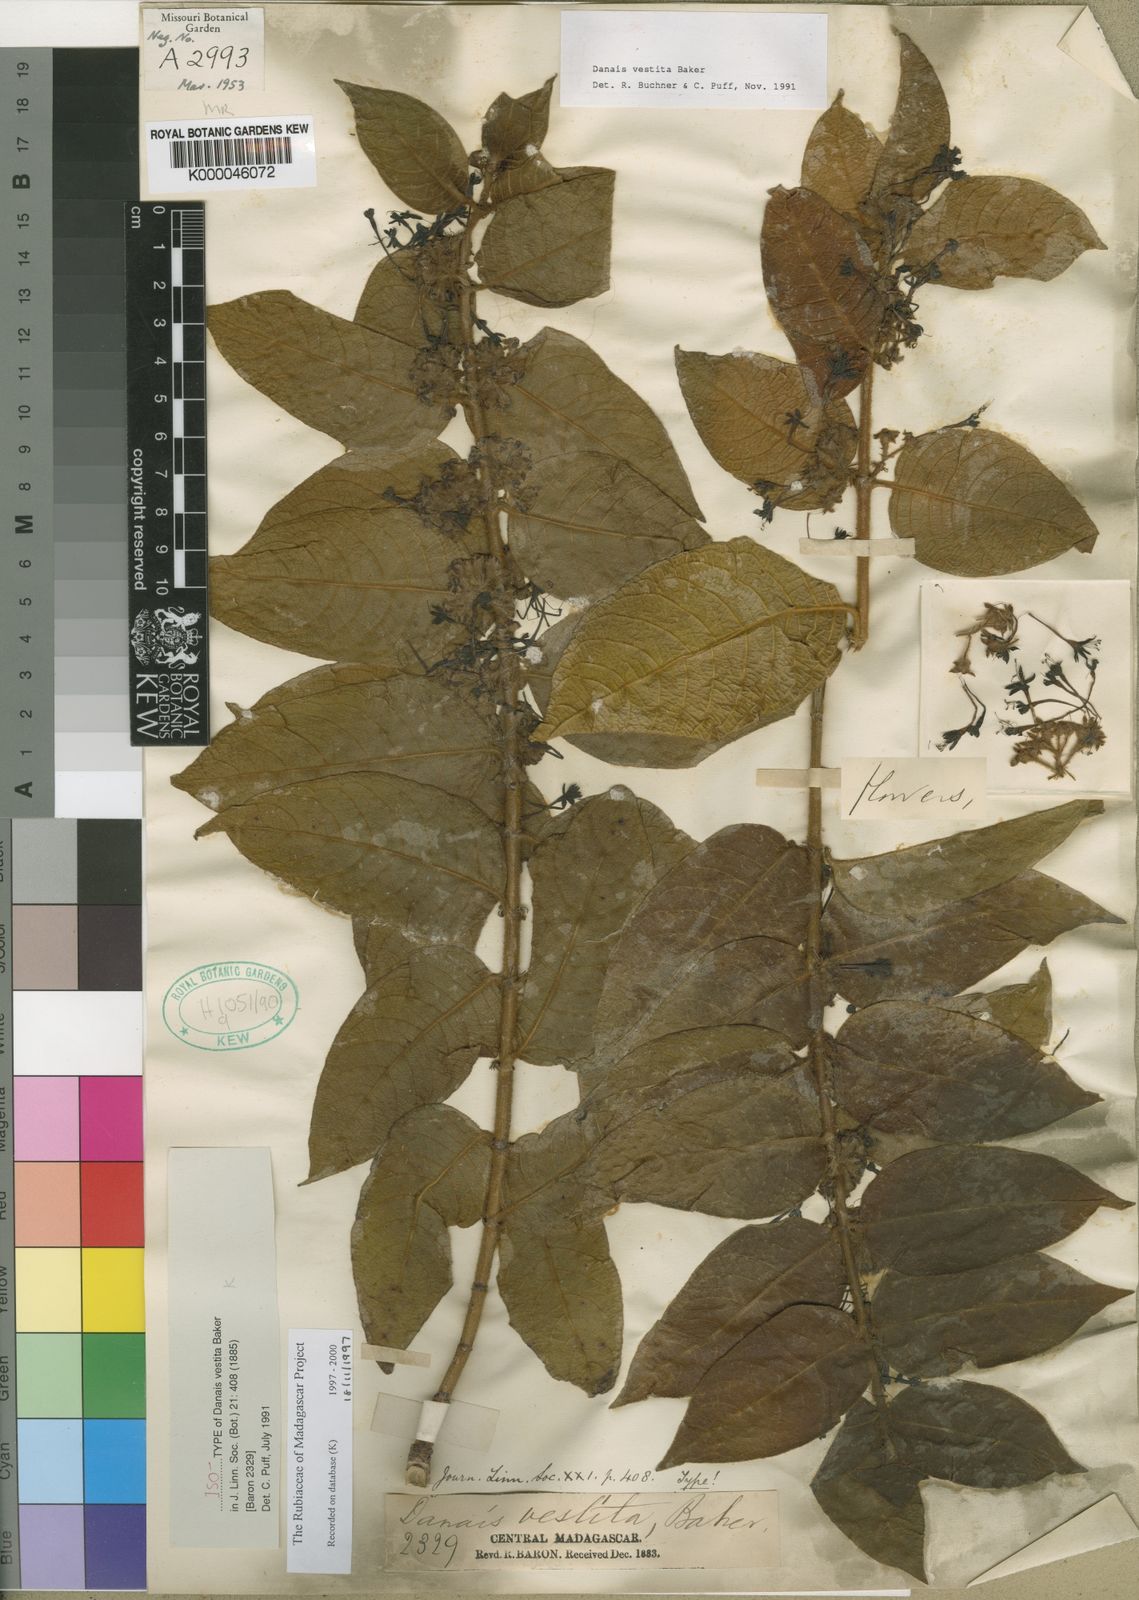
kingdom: Plantae
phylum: Tracheophyta
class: Magnoliopsida
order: Gentianales
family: Rubiaceae
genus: Danais
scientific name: Danais vestita
